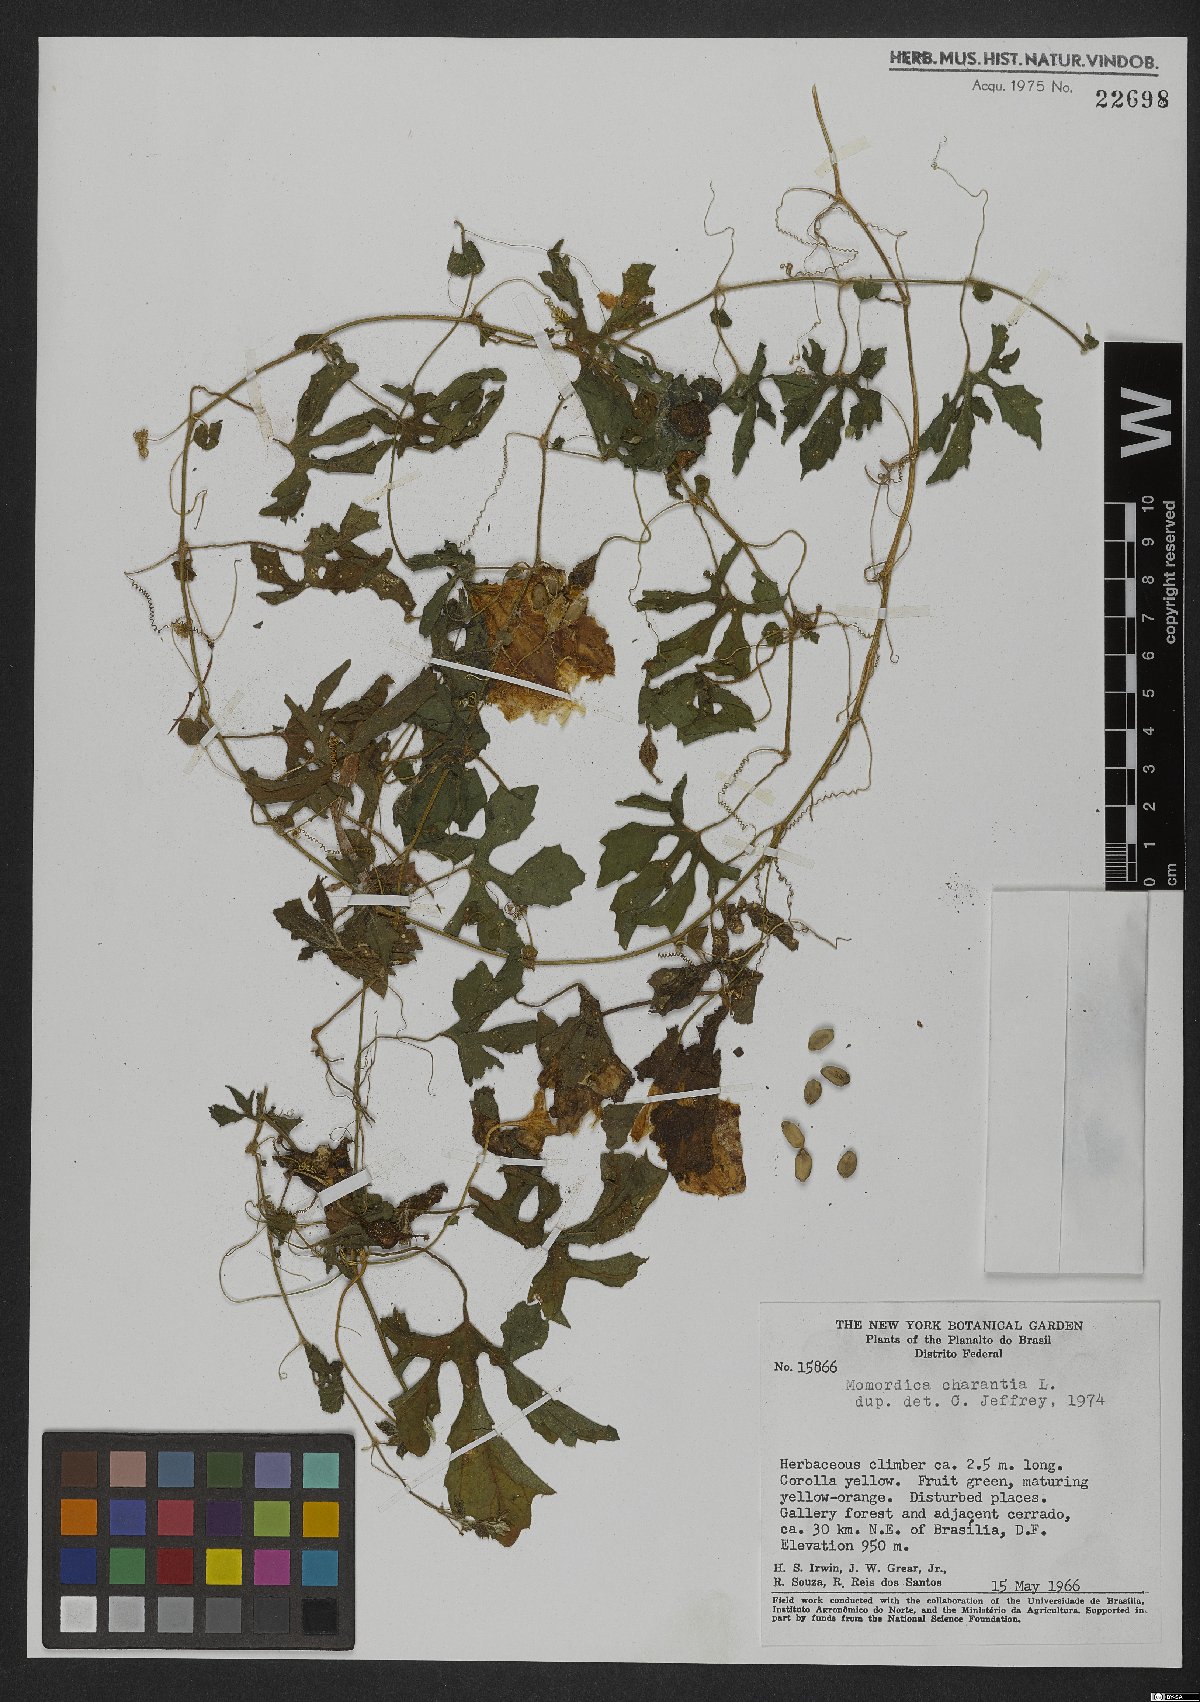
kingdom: Plantae
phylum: Tracheophyta
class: Magnoliopsida
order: Cucurbitales
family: Cucurbitaceae
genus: Momordica
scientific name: Momordica charantia
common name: Balsampear
